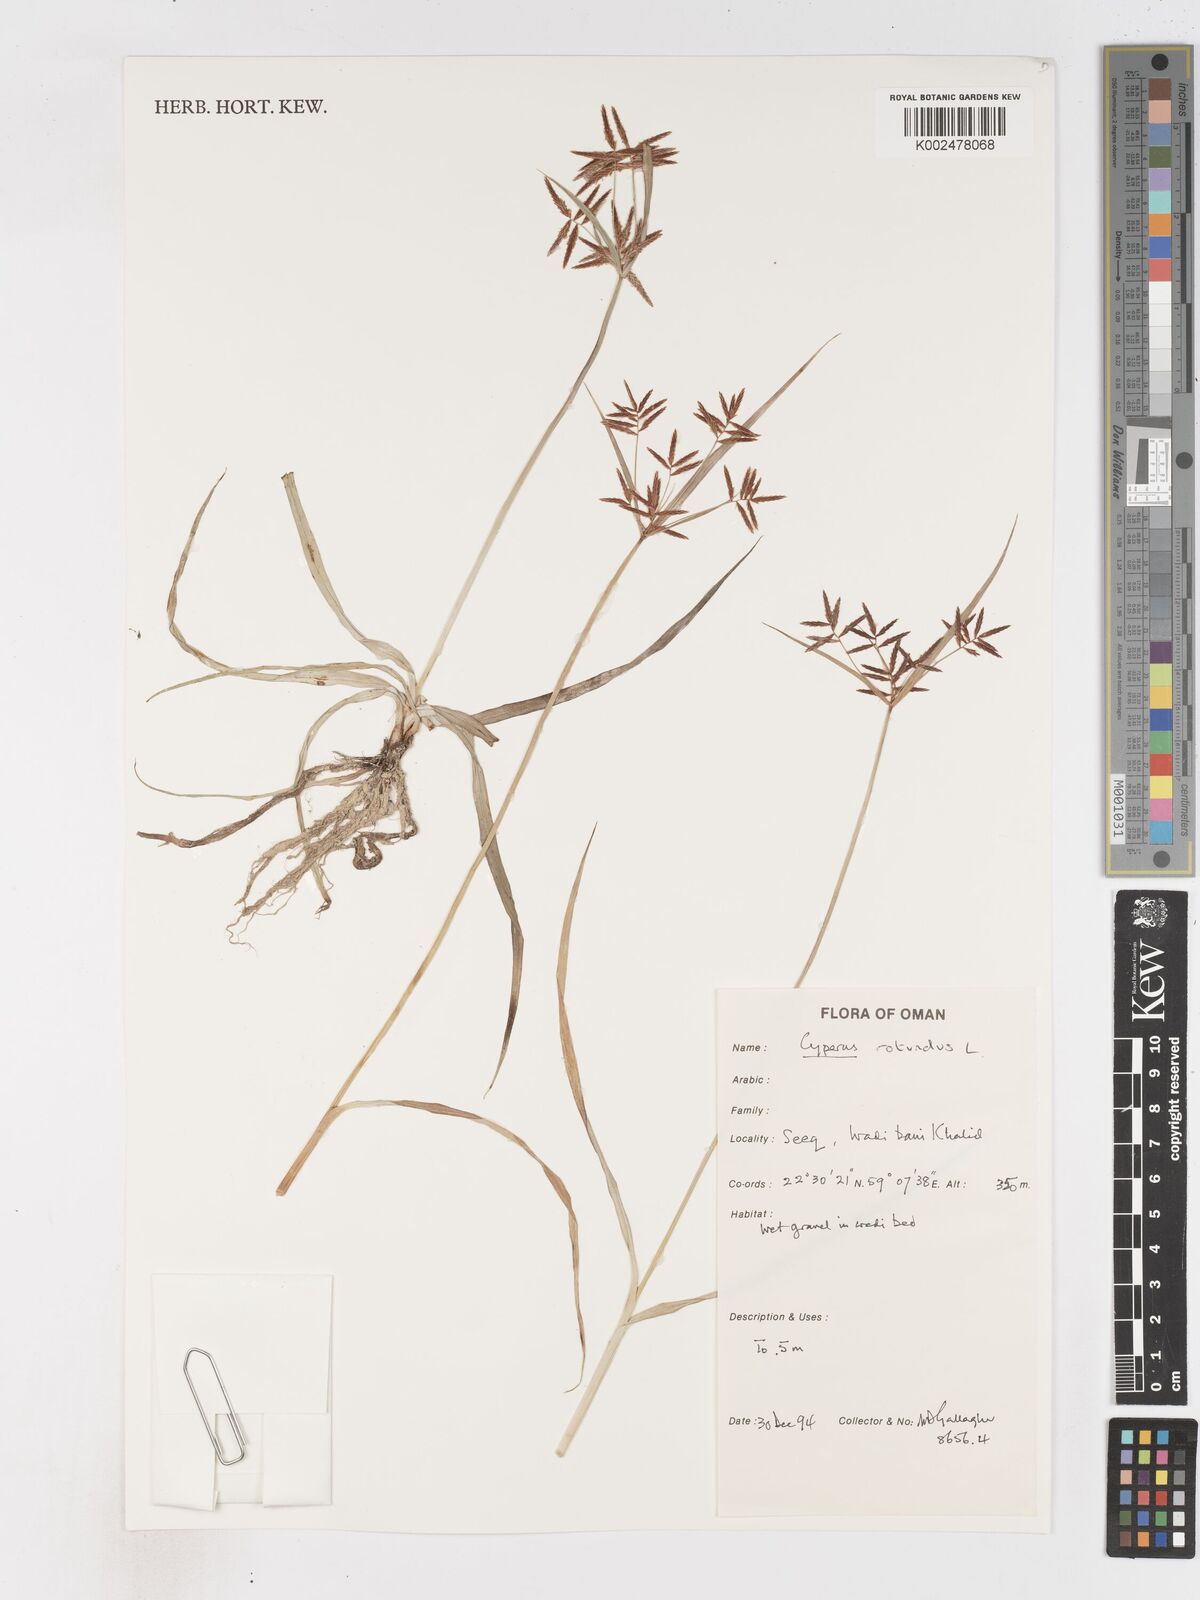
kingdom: Plantae
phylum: Tracheophyta
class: Liliopsida
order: Poales
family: Cyperaceae
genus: Cyperus
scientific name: Cyperus rotundus
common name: Nutgrass
